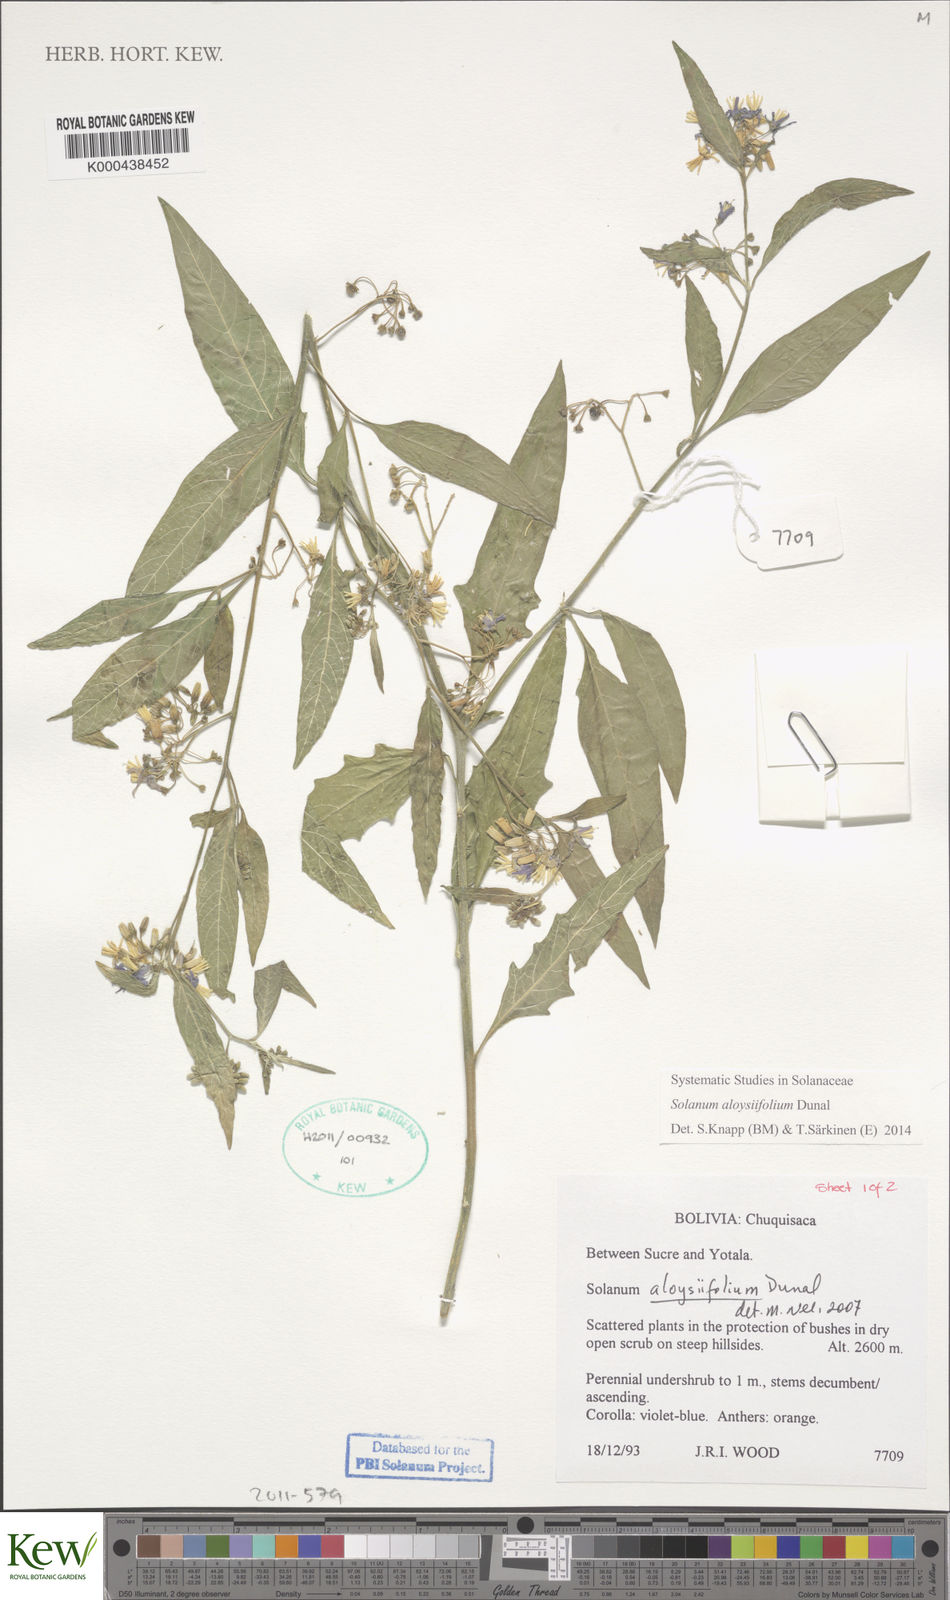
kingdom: Plantae
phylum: Tracheophyta
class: Magnoliopsida
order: Solanales
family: Solanaceae
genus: Solanum
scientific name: Solanum aloysiifolium
